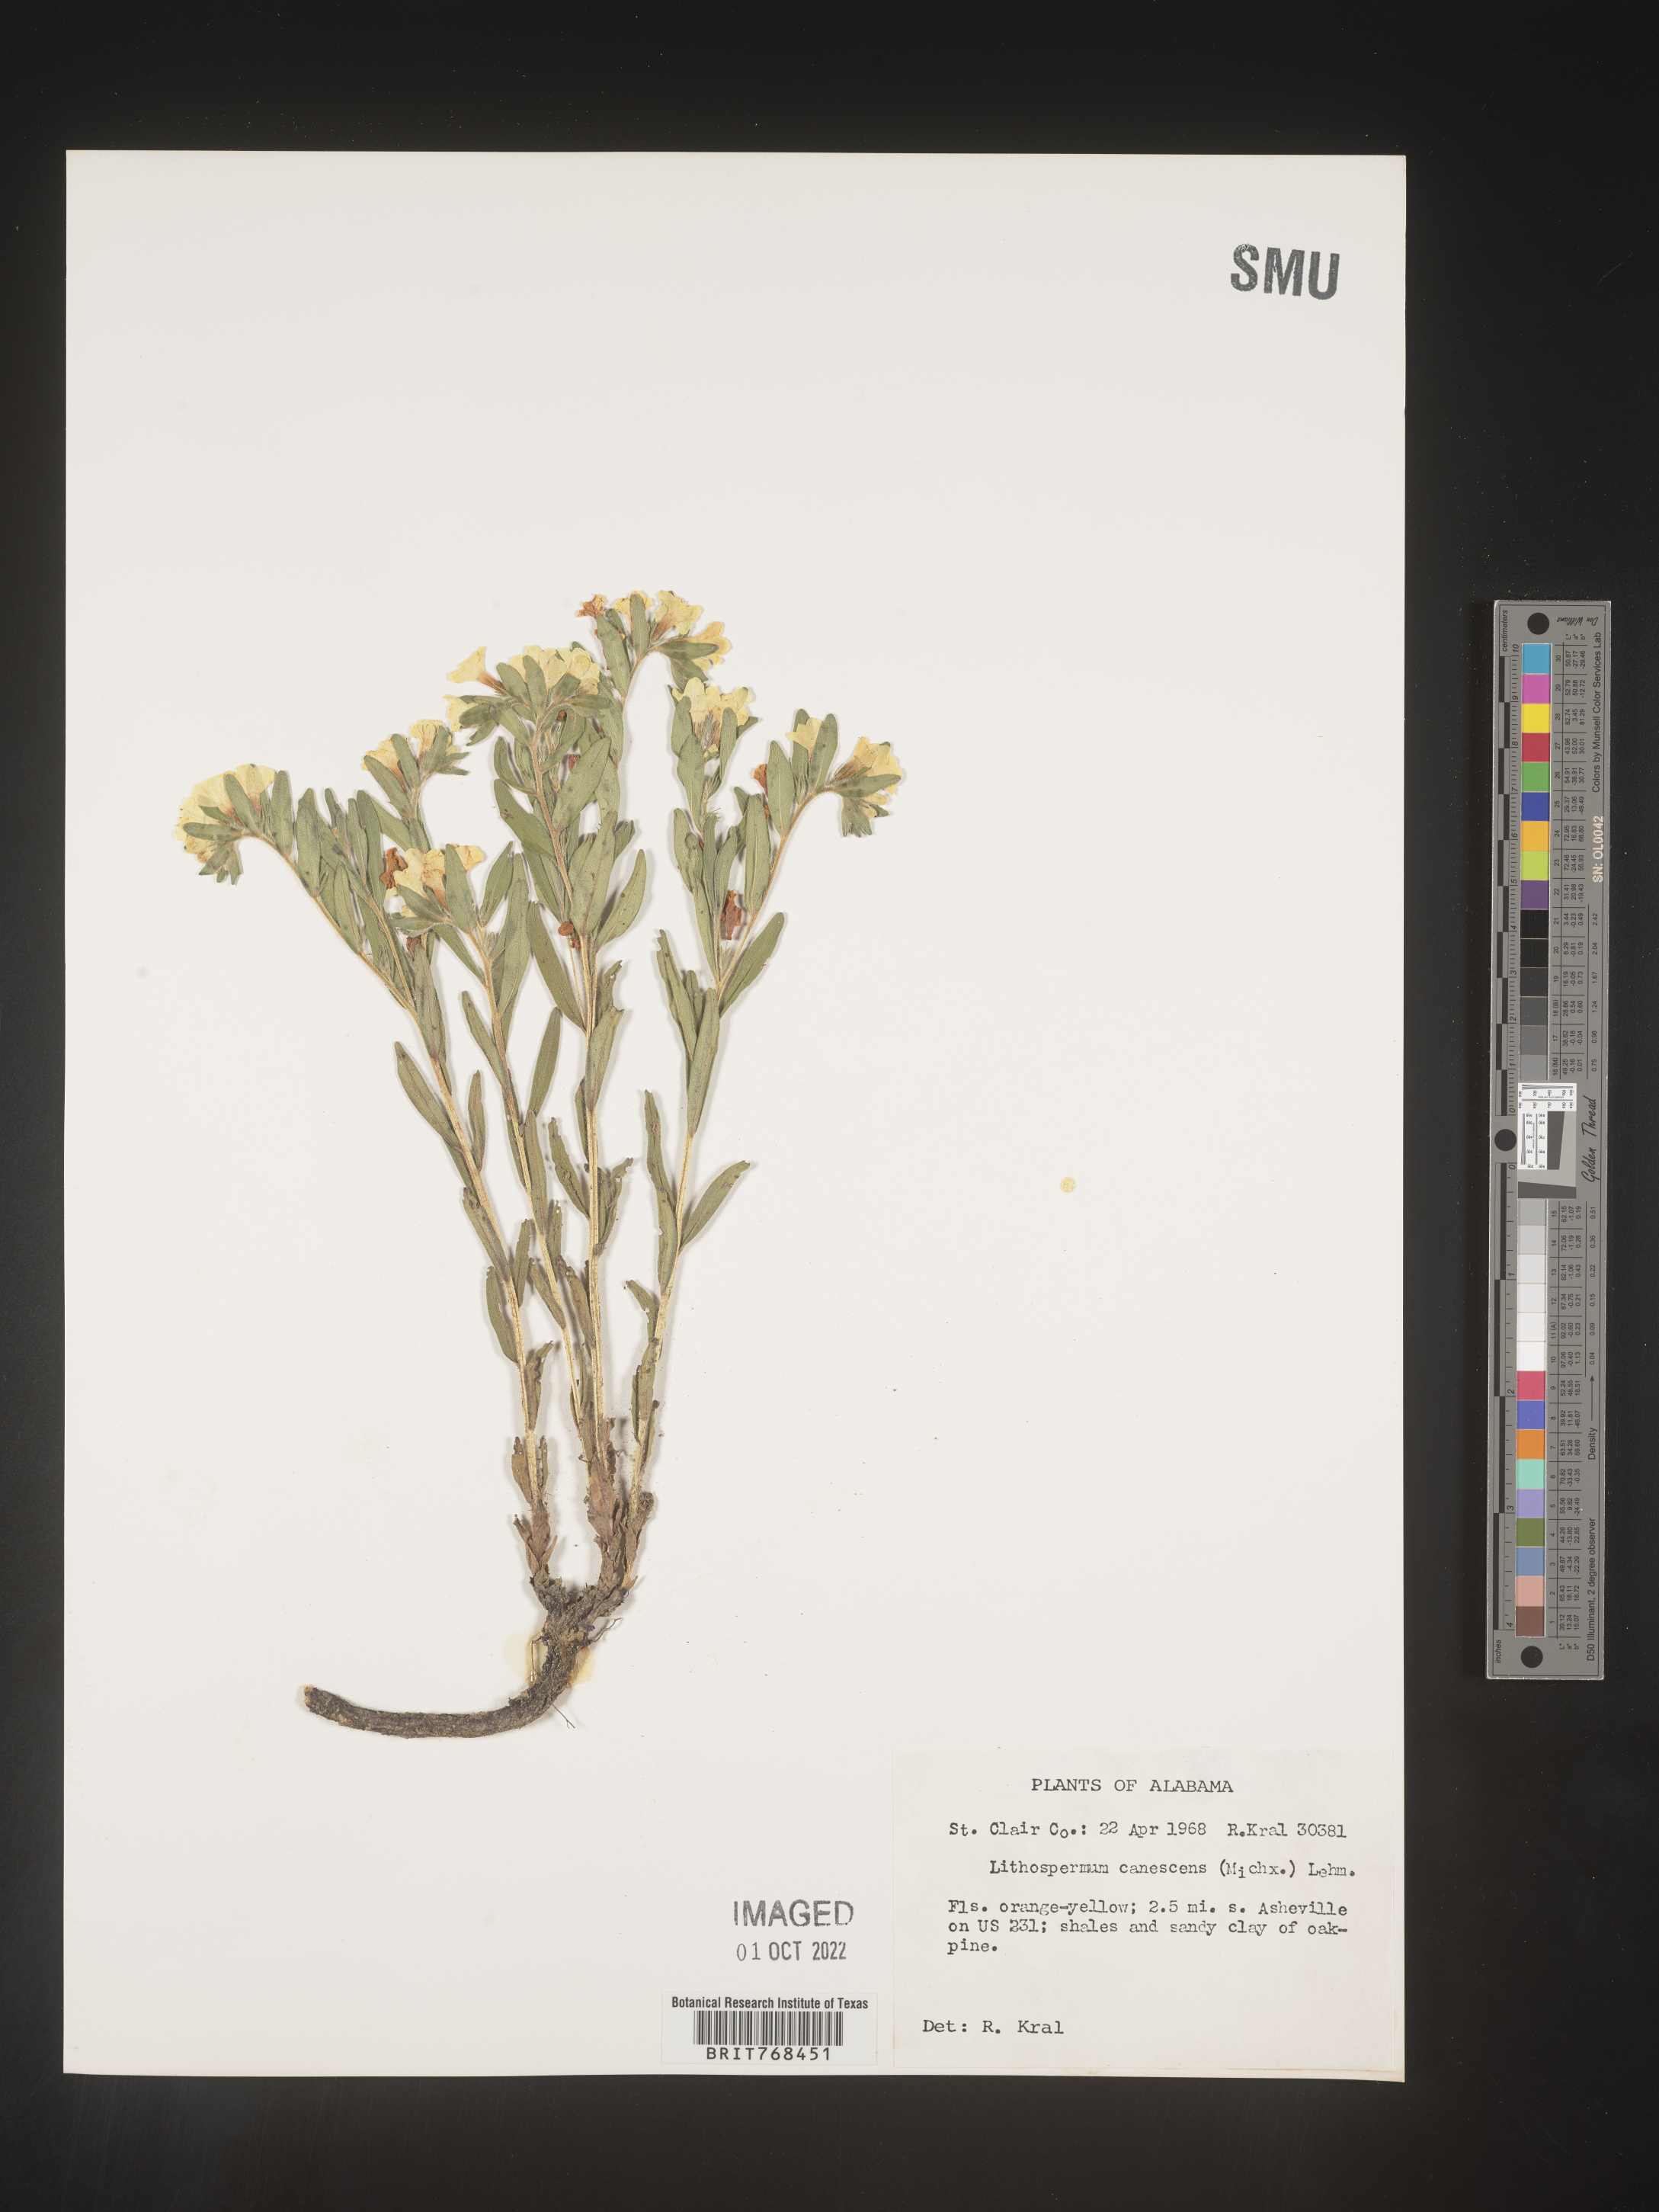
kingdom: Plantae
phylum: Tracheophyta
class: Magnoliopsida
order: Boraginales
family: Boraginaceae
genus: Lithospermum
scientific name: Lithospermum canescens
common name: Hoary puccoon
